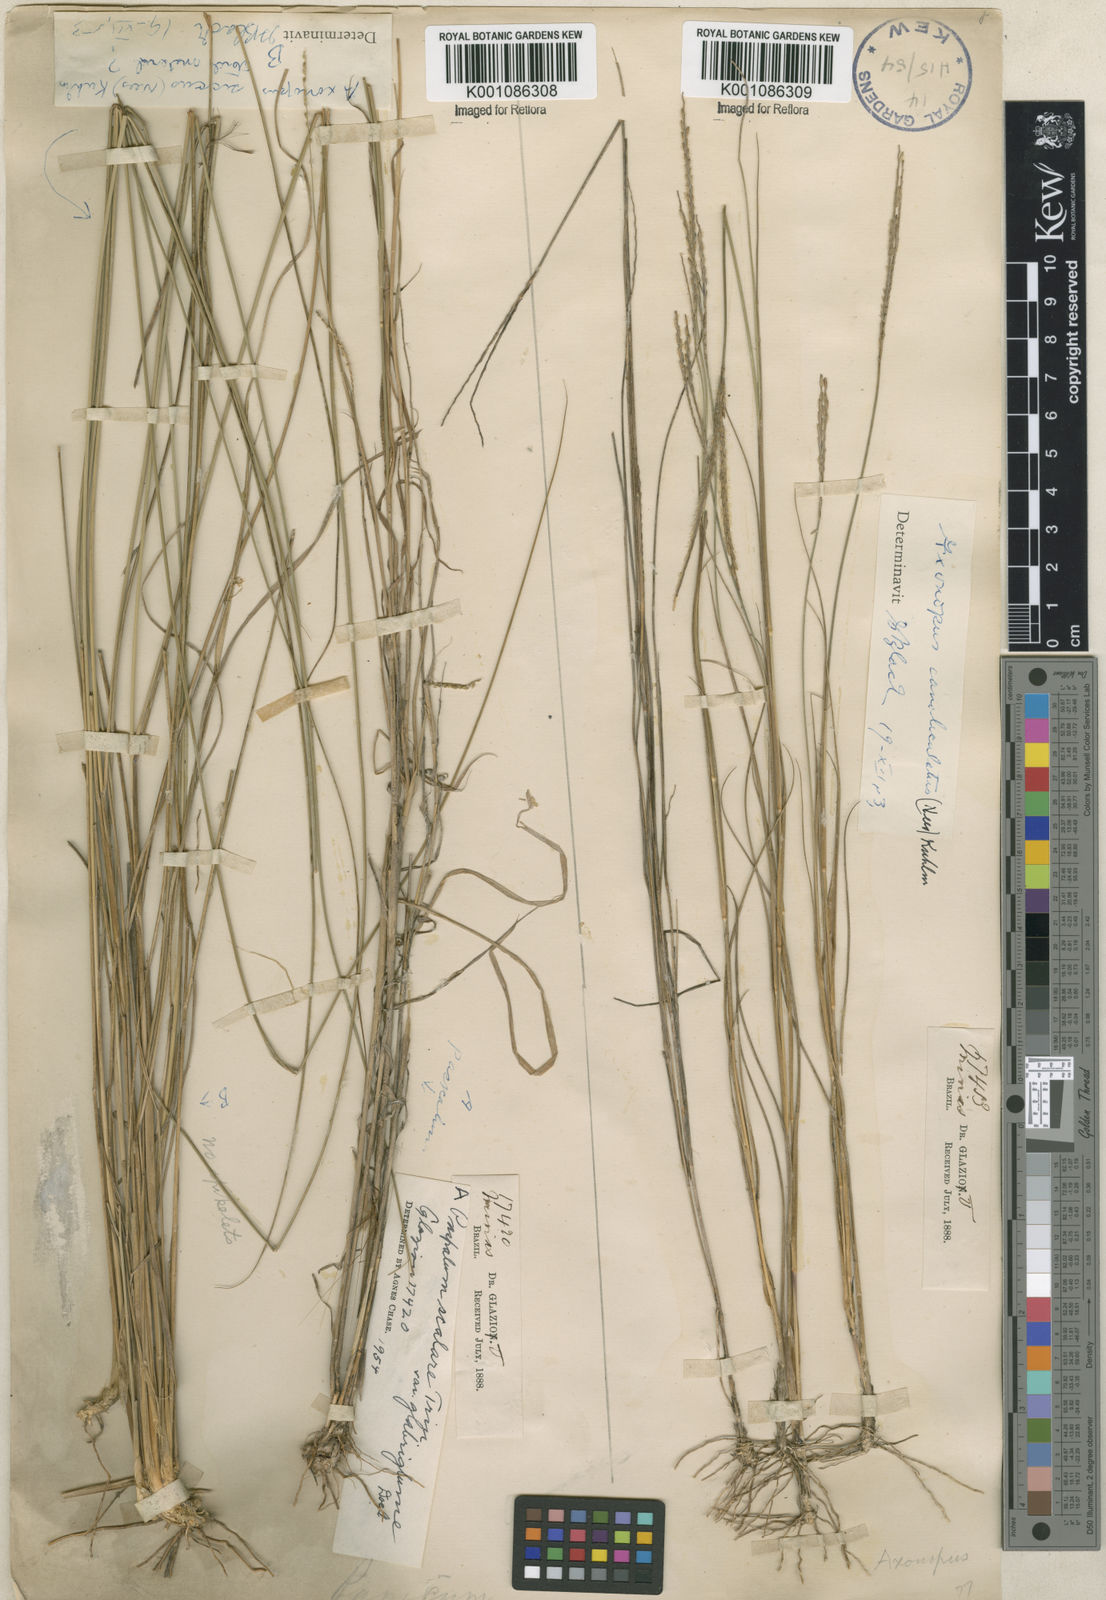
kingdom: Plantae
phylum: Tracheophyta
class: Liliopsida
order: Poales
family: Poaceae
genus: Axonopus
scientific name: Axonopus fastigiatus
